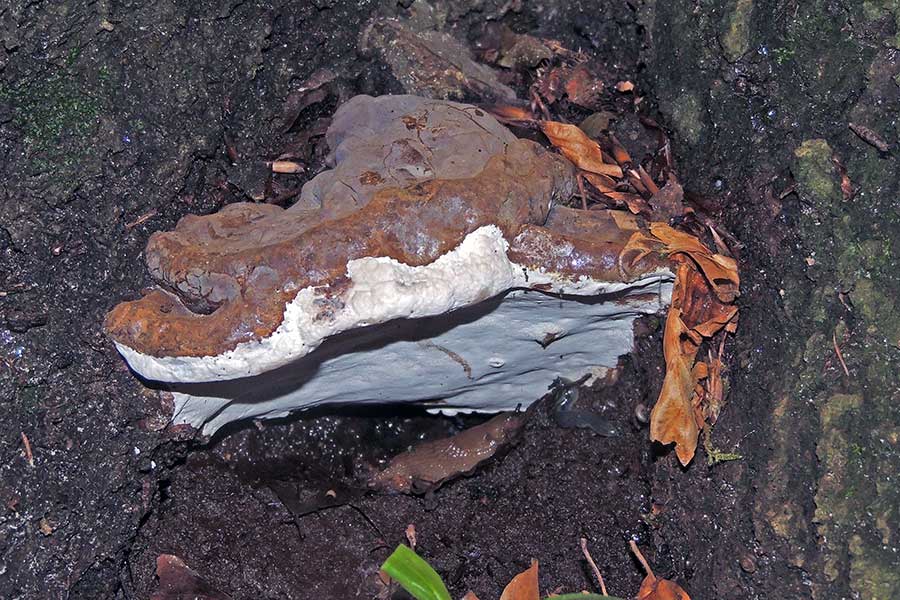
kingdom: Fungi
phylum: Basidiomycota
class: Agaricomycetes
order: Polyporales
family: Polyporaceae
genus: Ganoderma
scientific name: Ganoderma pfeifferi
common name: kobberrød lakporesvamp
